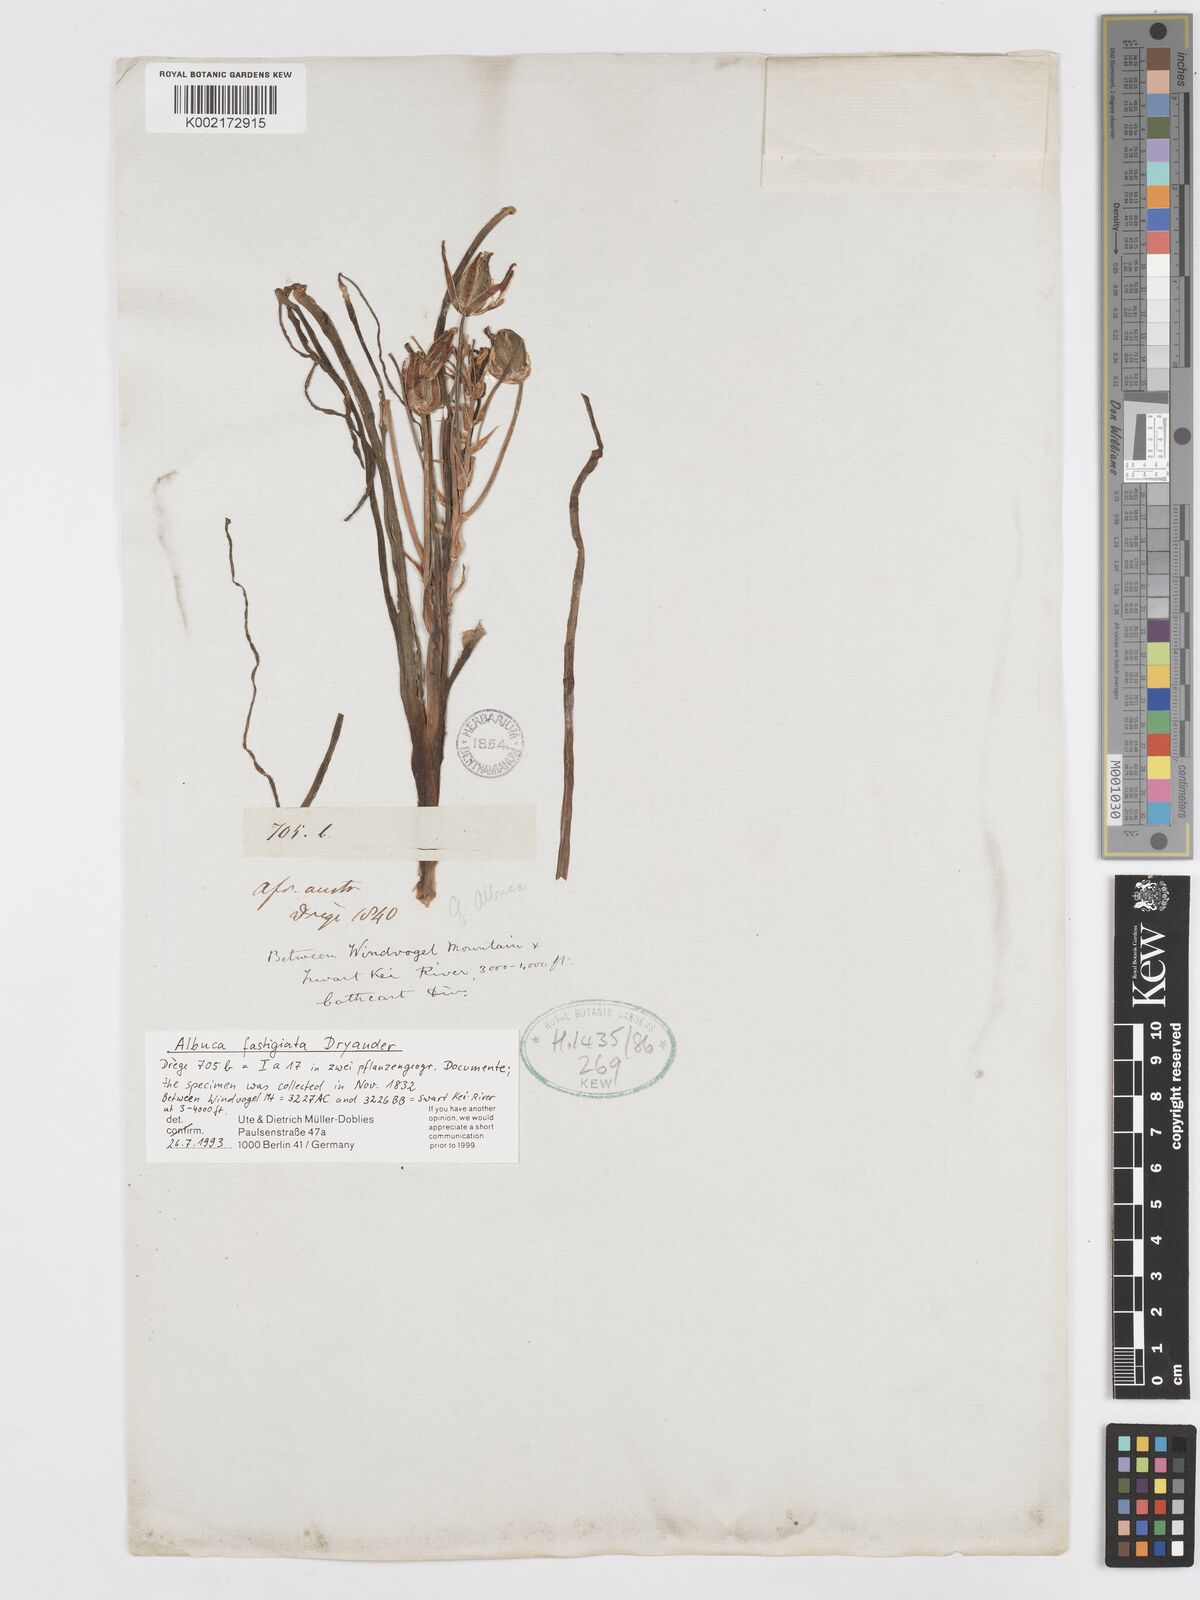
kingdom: Plantae
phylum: Tracheophyta
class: Liliopsida
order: Asparagales
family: Asparagaceae
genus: Albuca
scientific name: Albuca fastigiata
